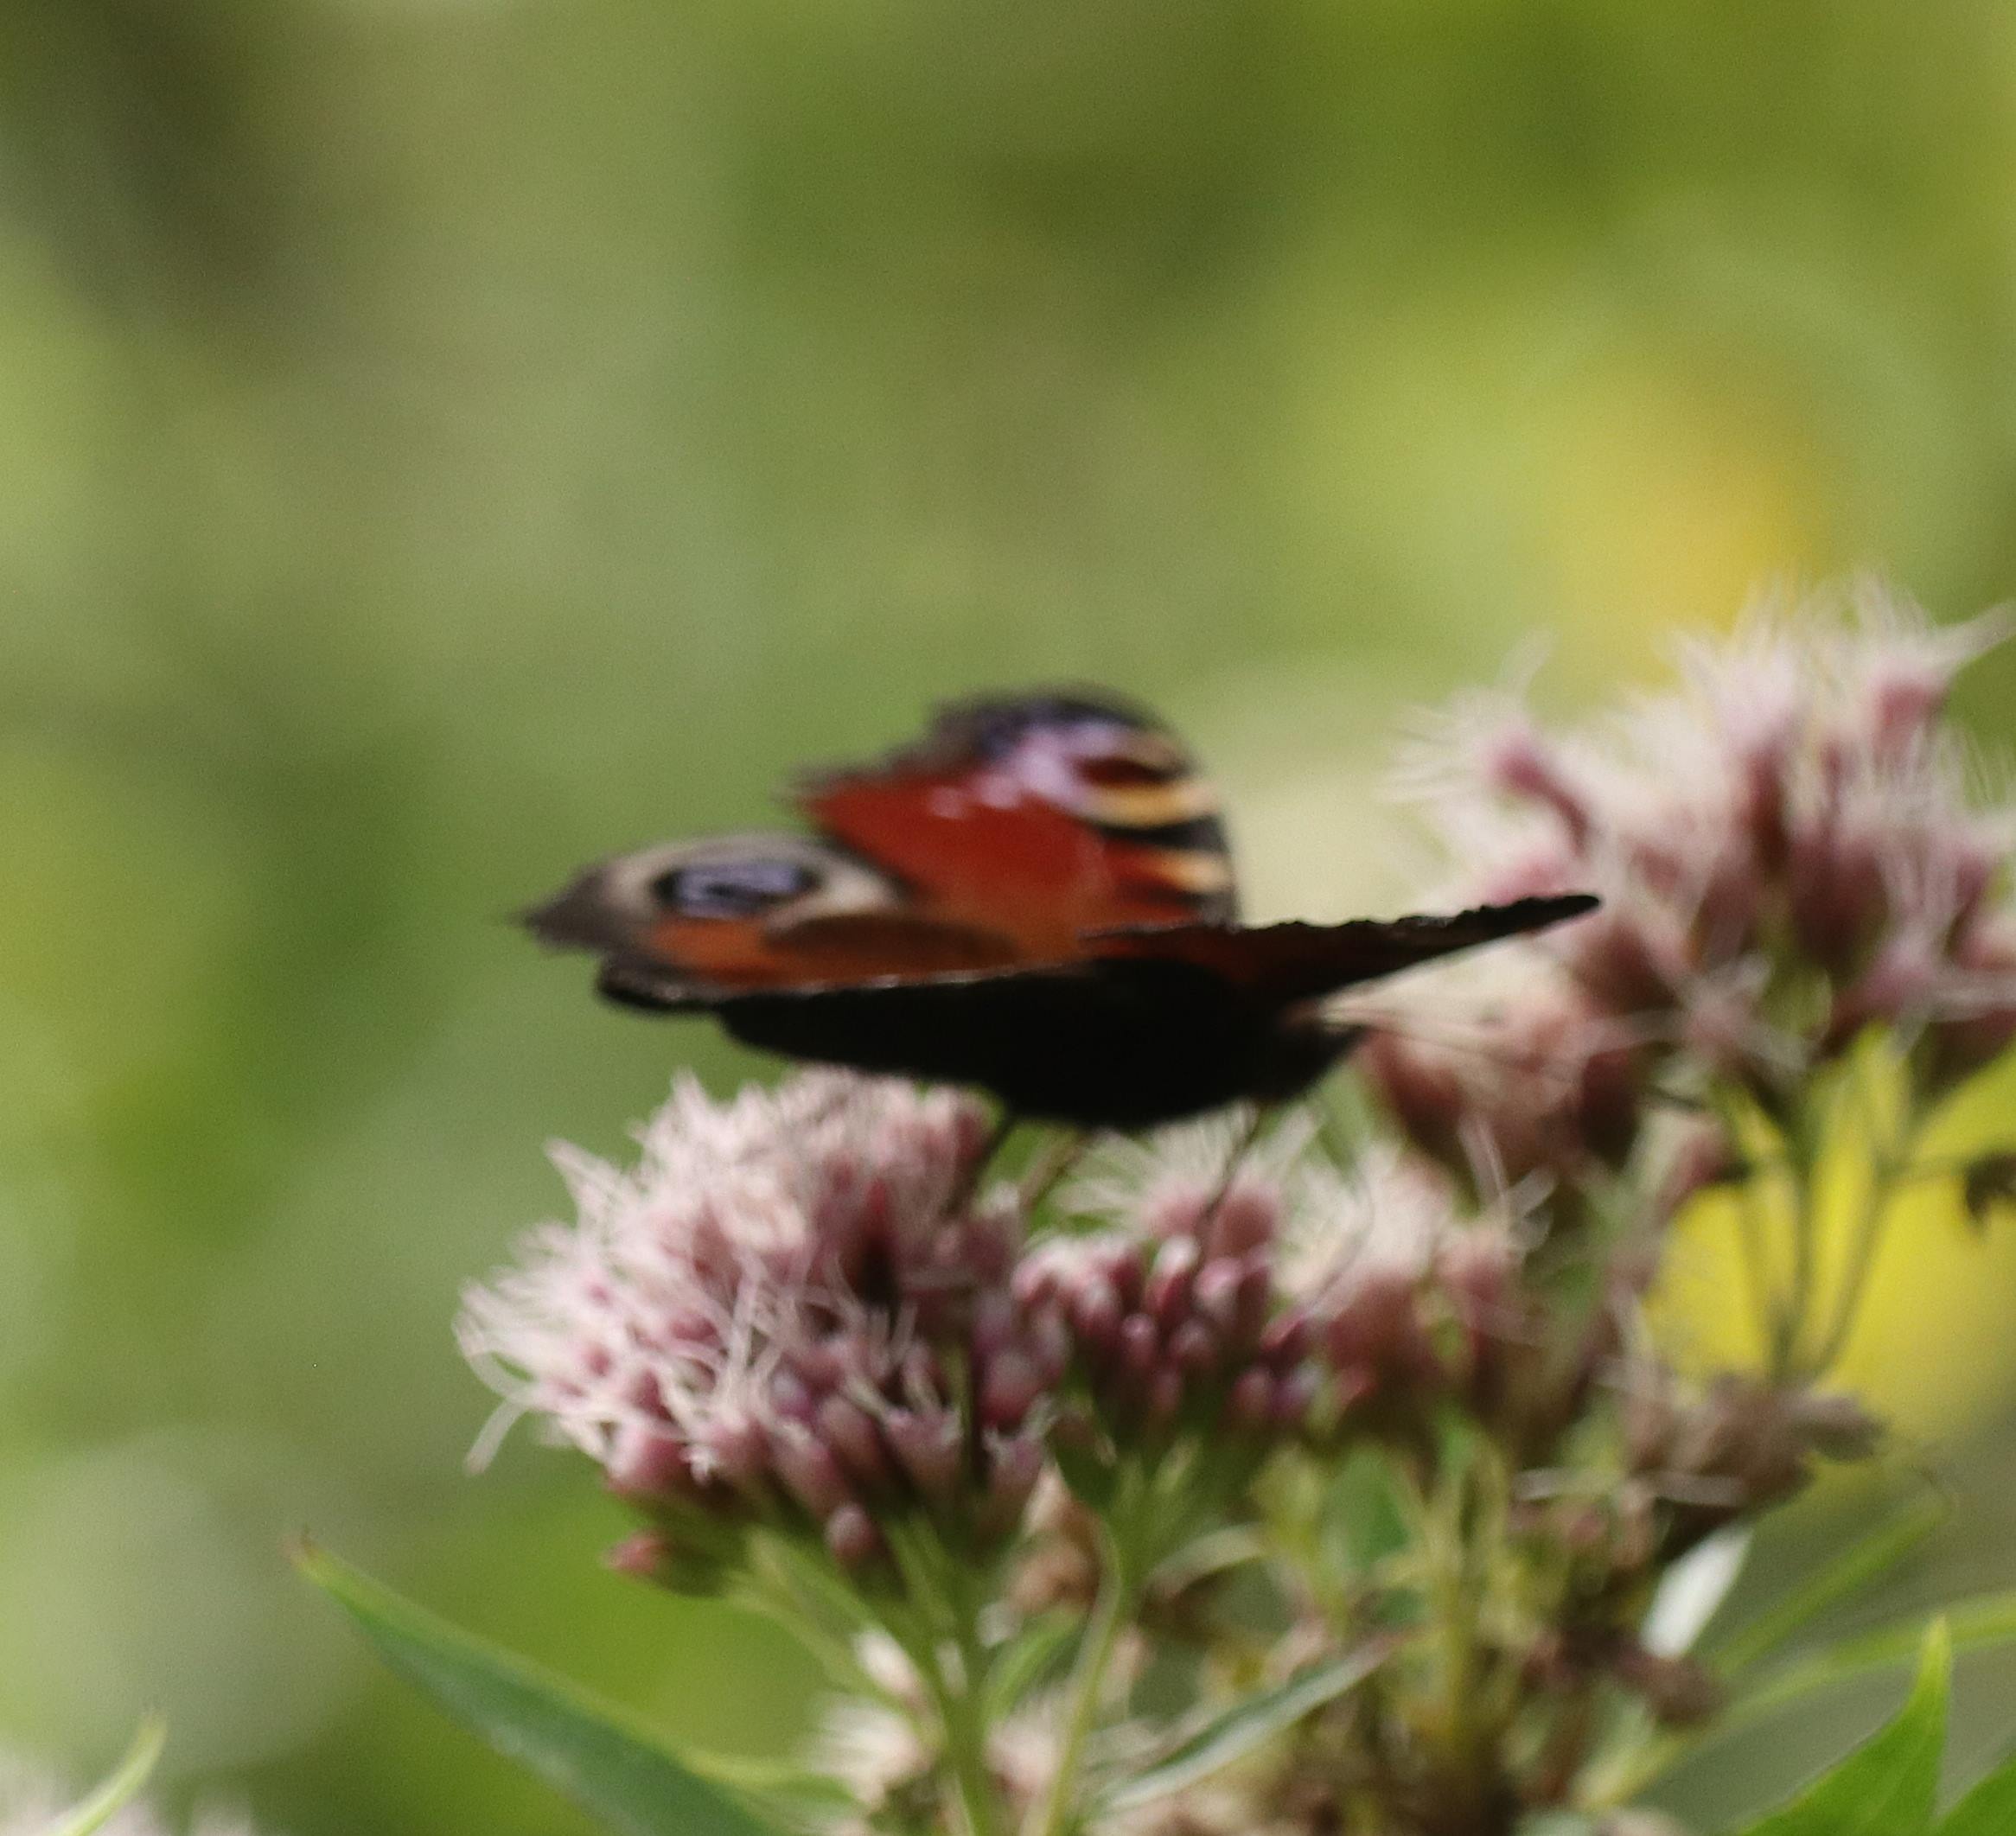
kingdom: Animalia
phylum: Arthropoda
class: Insecta
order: Lepidoptera
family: Nymphalidae
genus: Aglais
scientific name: Aglais io
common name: Dagpåfugleøje
